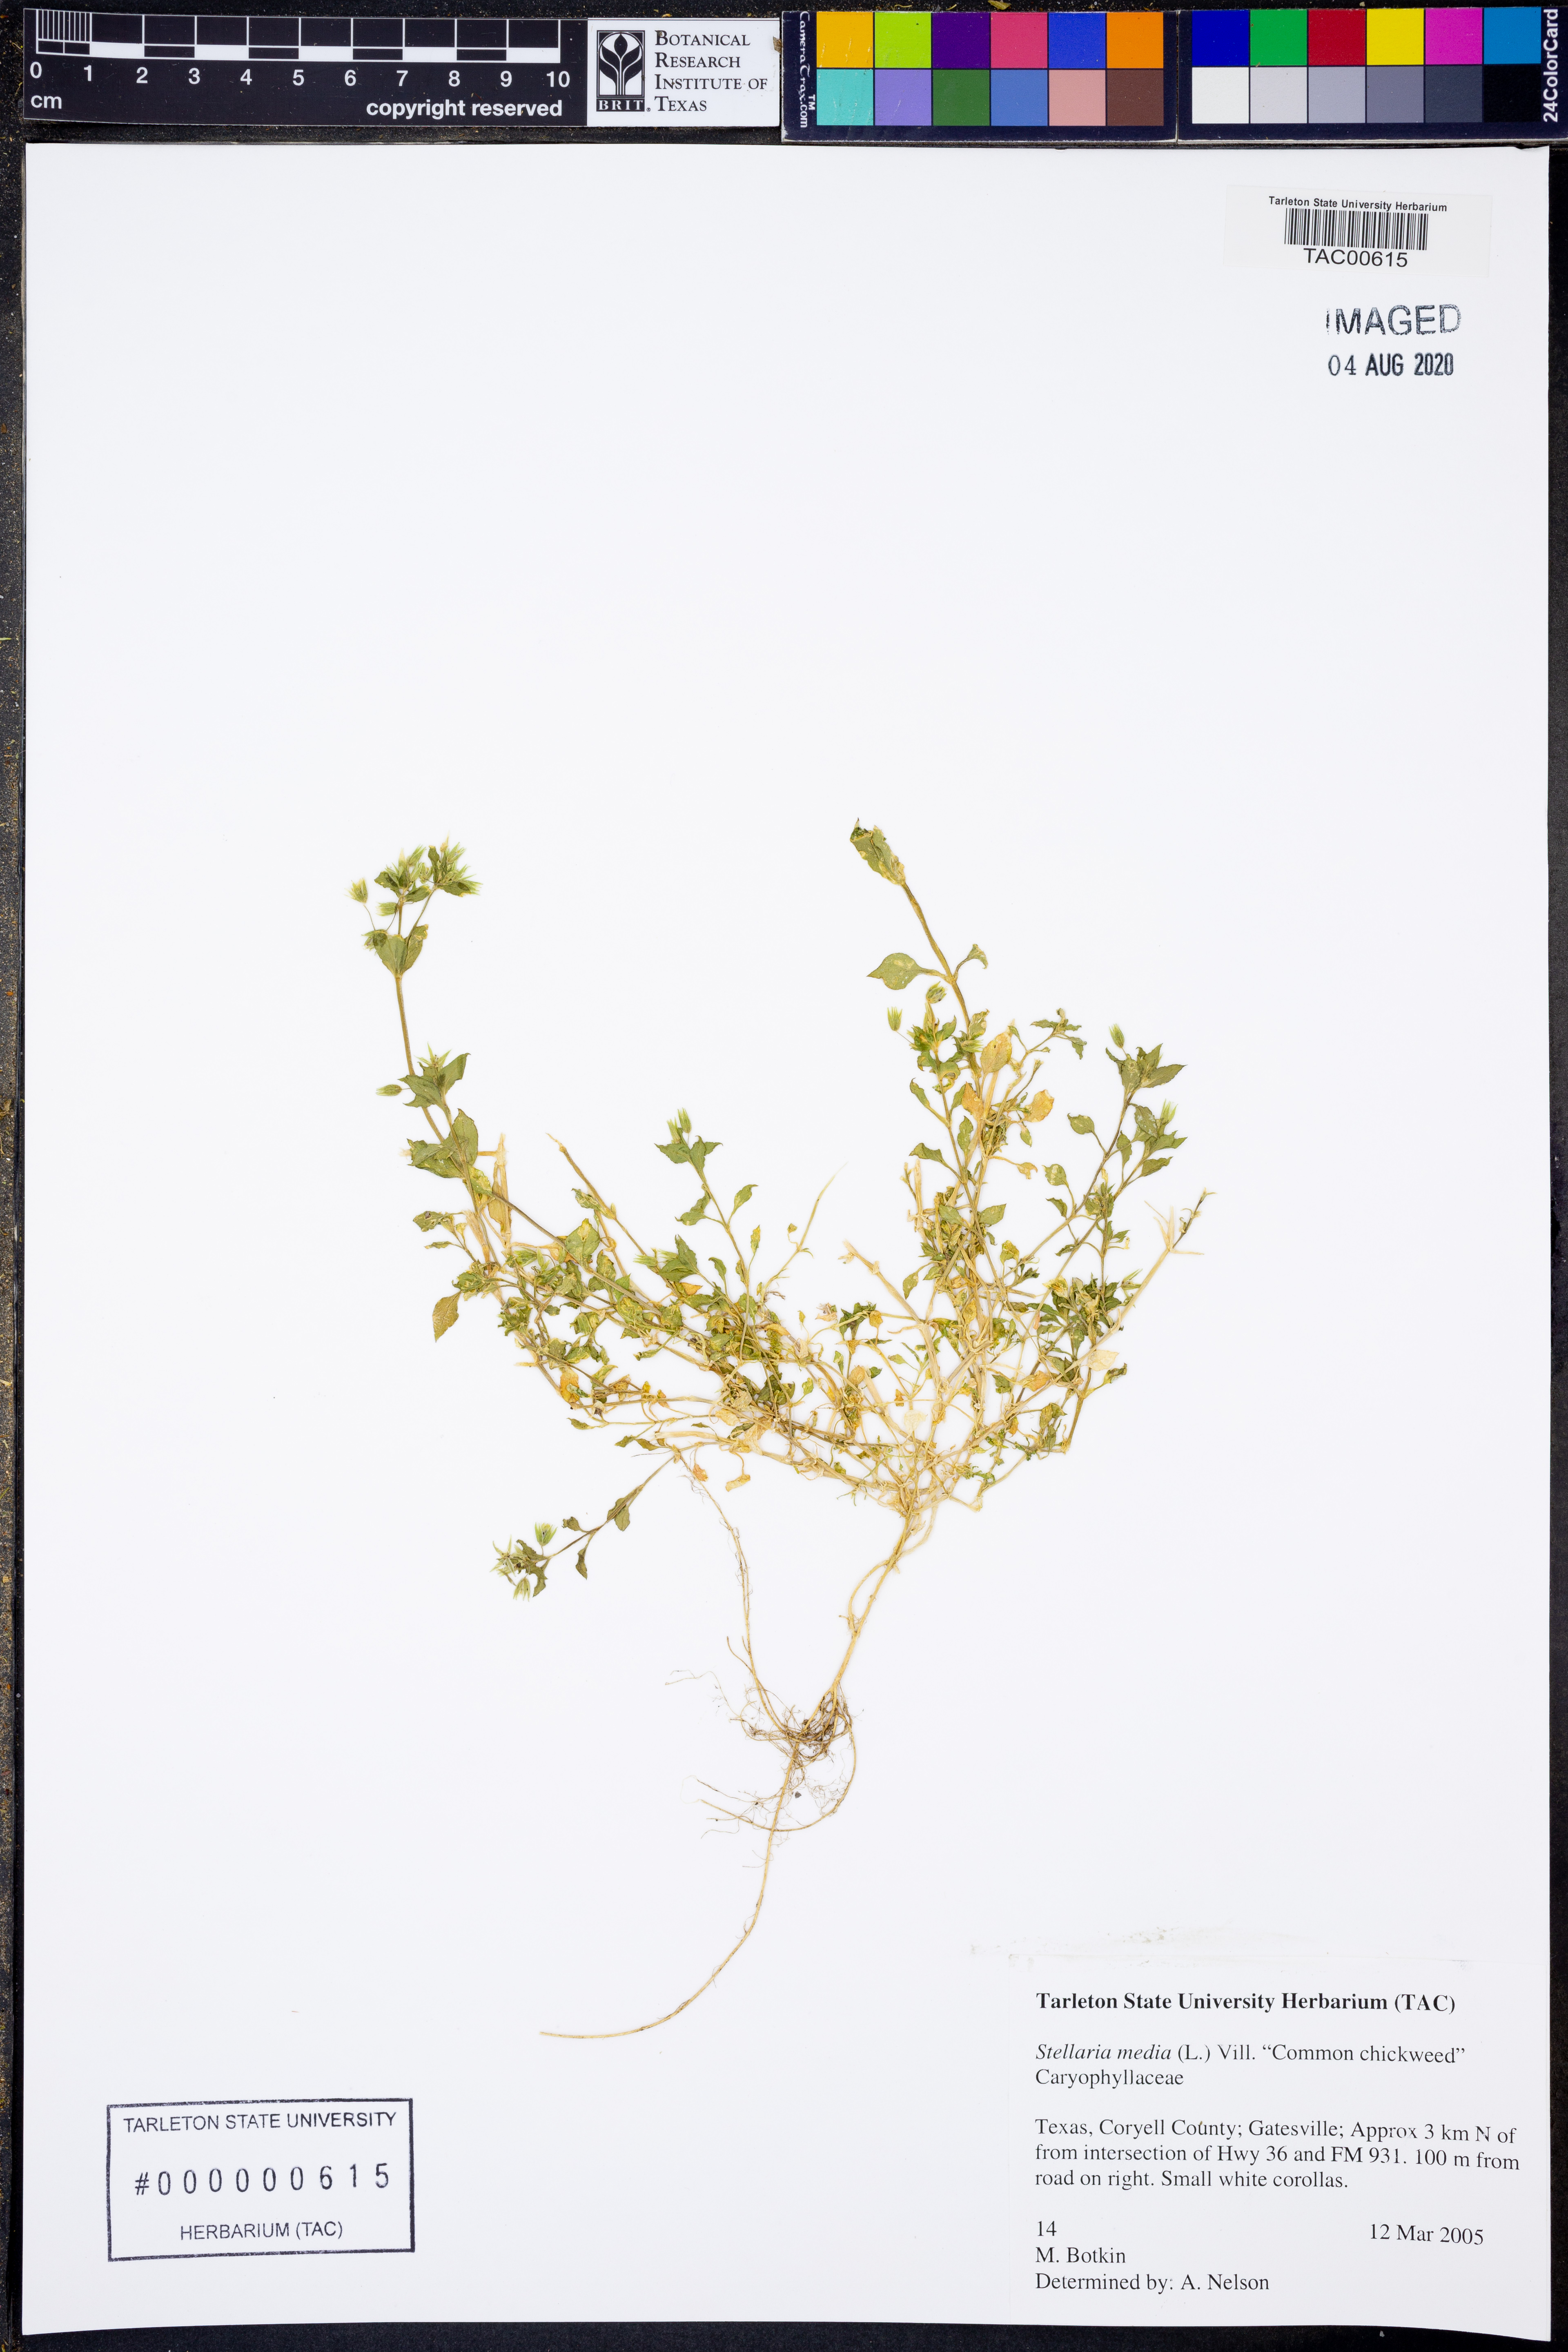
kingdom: Plantae
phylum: Tracheophyta
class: Magnoliopsida
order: Caryophyllales
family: Caryophyllaceae
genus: Stellaria
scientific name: Stellaria media
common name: Common chickweed
